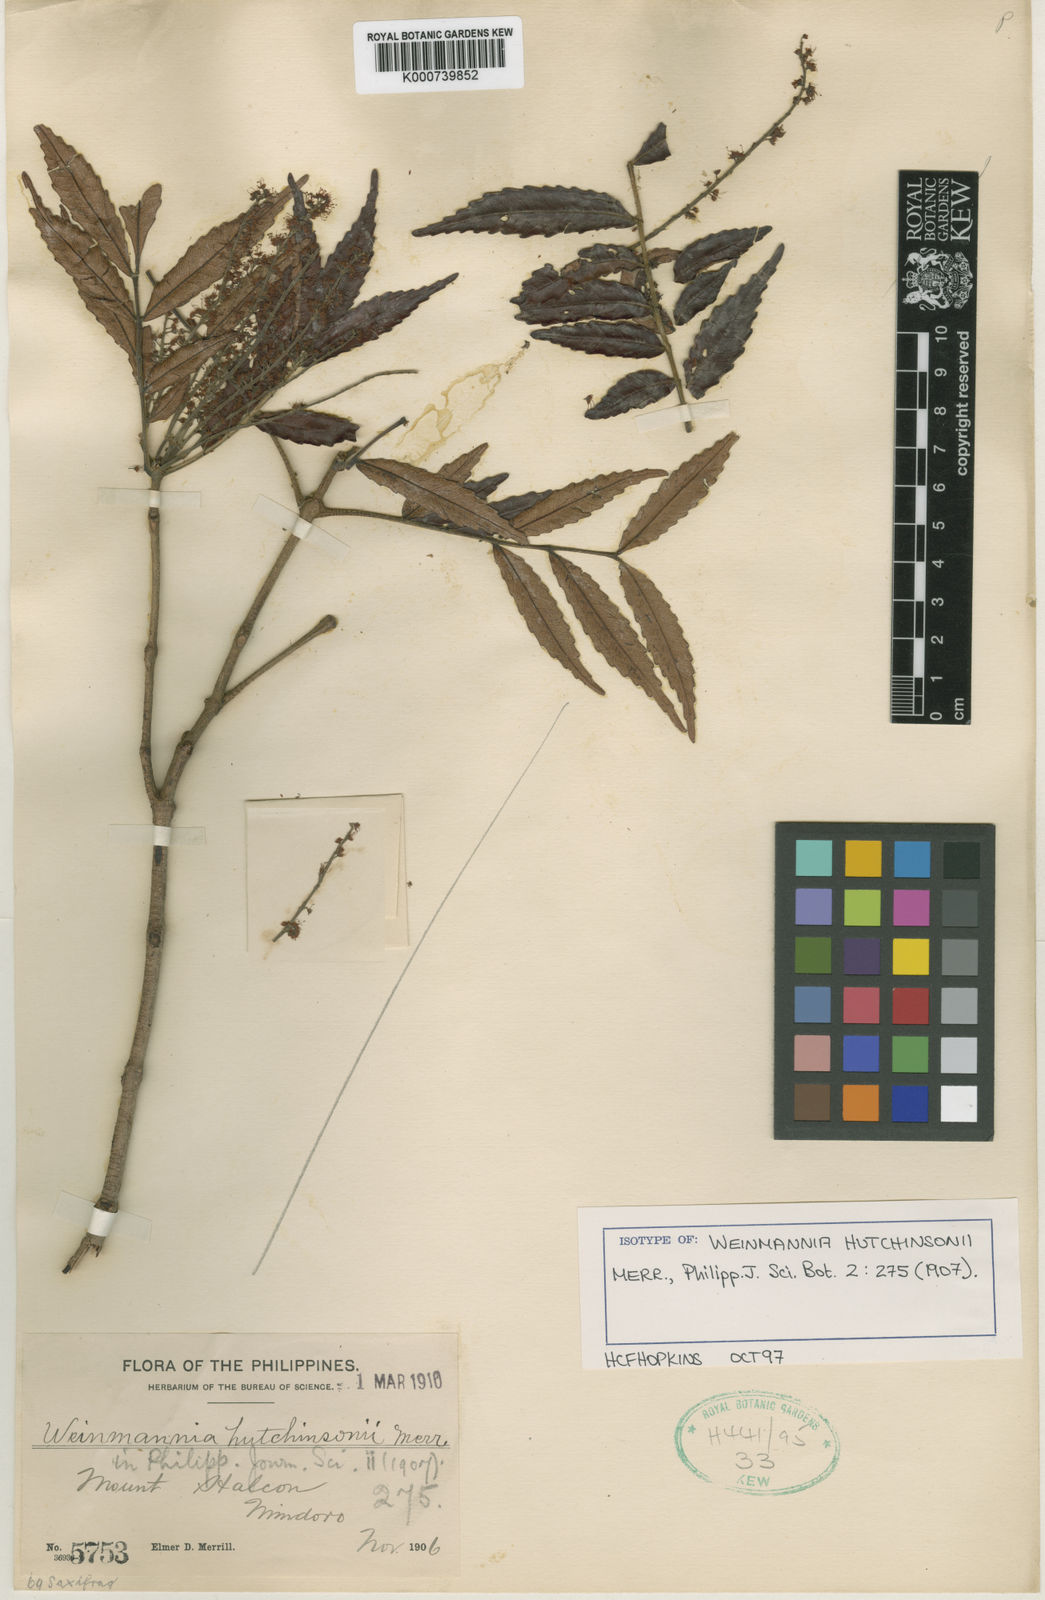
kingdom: Plantae
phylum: Tracheophyta
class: Magnoliopsida
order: Oxalidales
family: Cunoniaceae
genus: Pterophylla
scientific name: Pterophylla hutchinsonii
